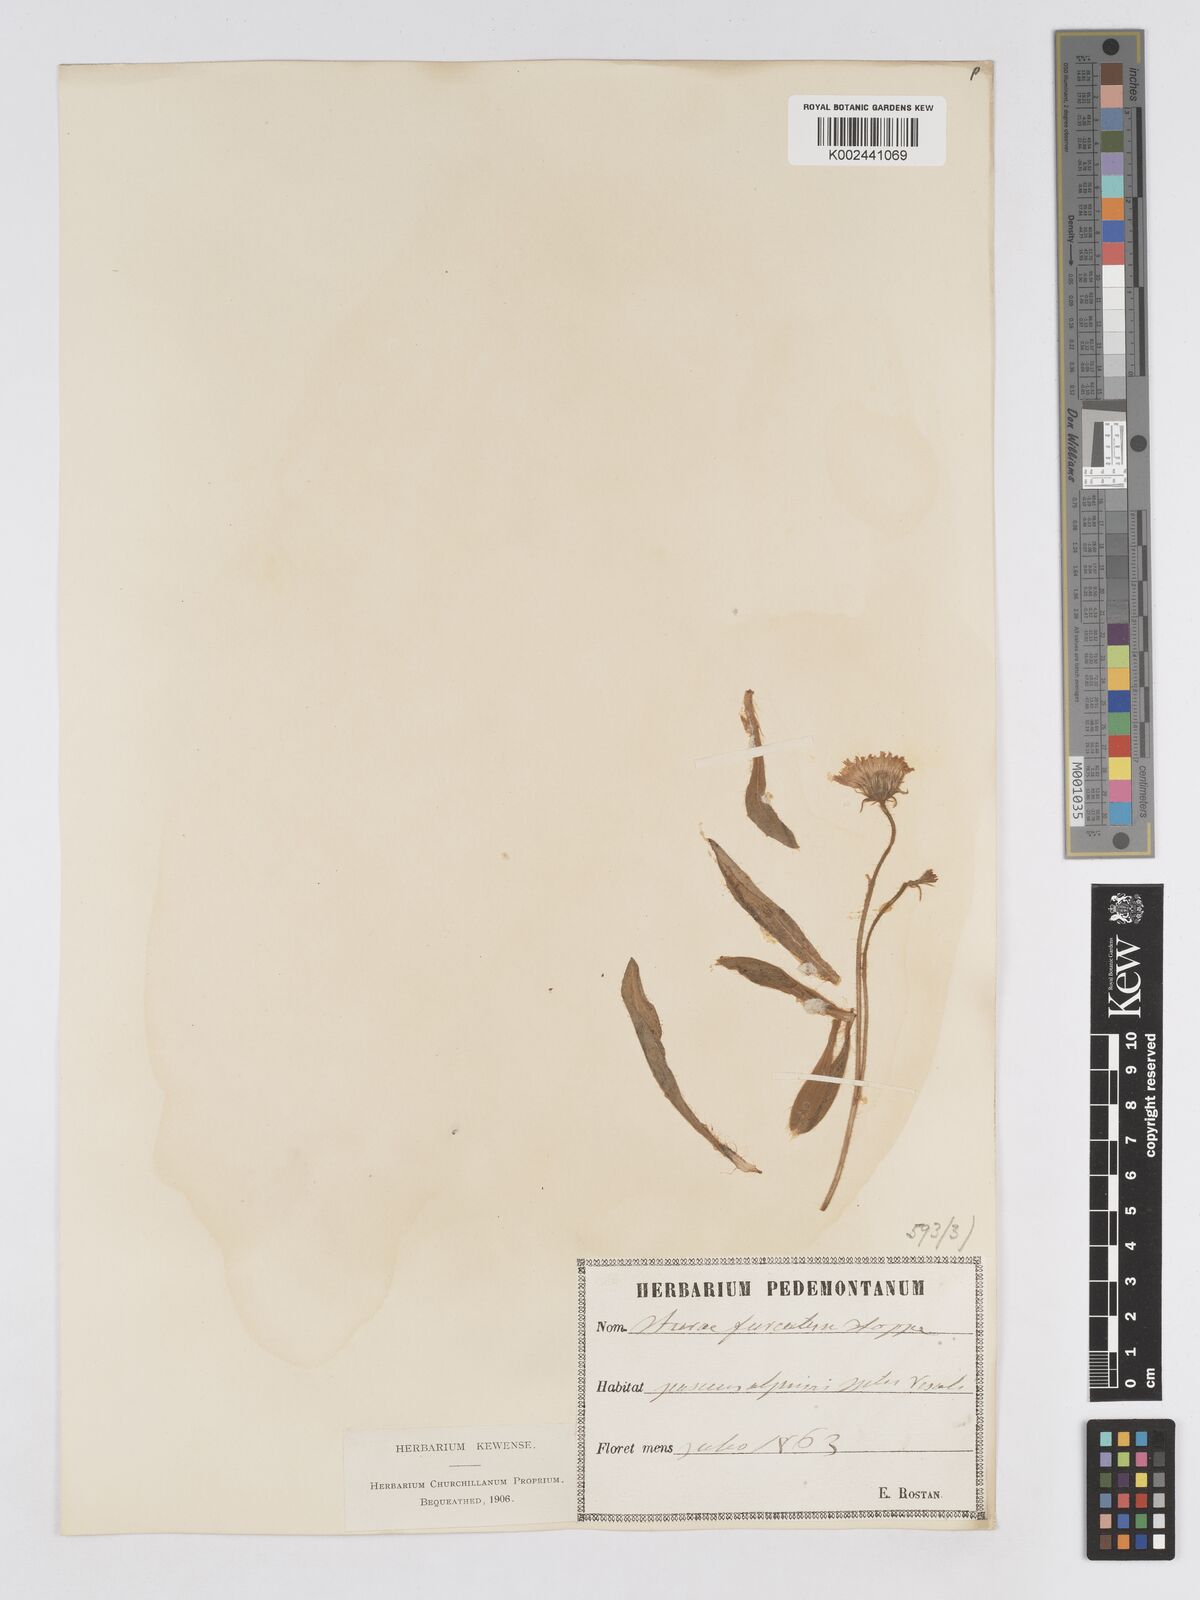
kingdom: Plantae
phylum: Tracheophyta
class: Magnoliopsida
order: Asterales
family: Asteraceae
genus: Pilosella
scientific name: Pilosella sphaerocephala
